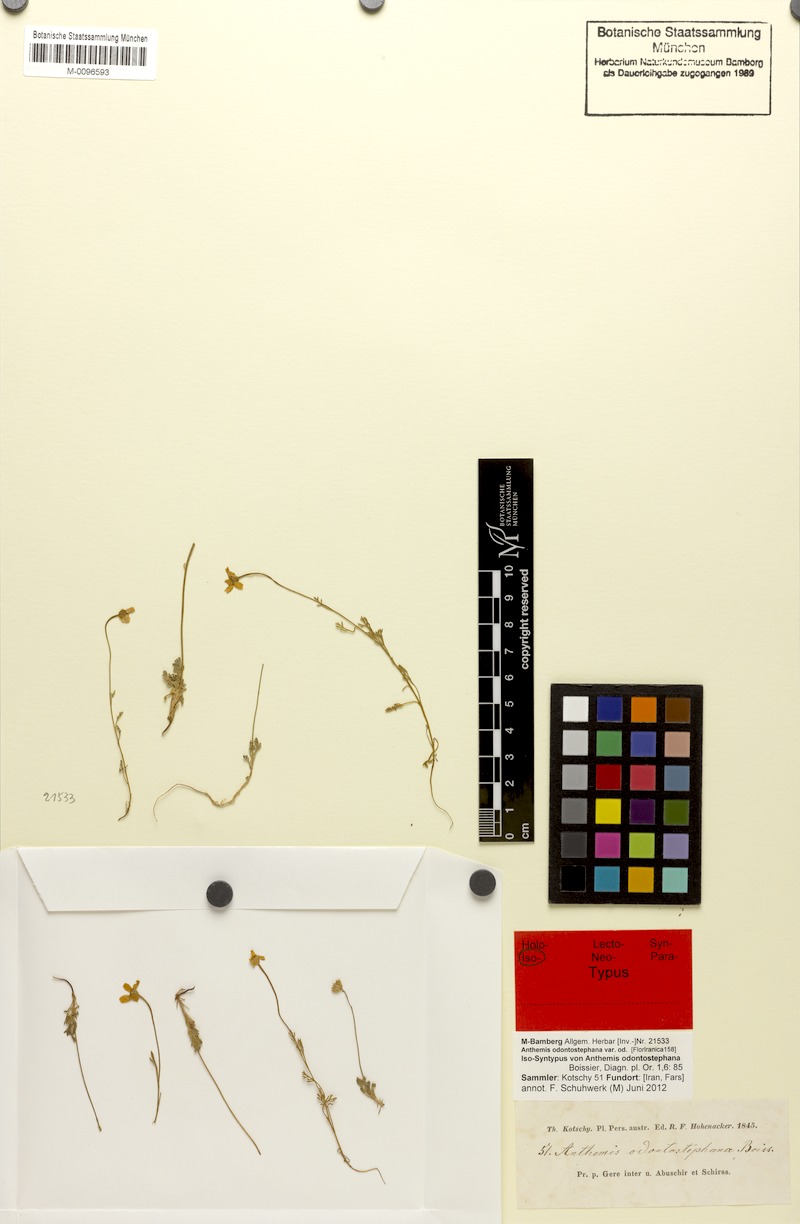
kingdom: Plantae
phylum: Tracheophyta
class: Magnoliopsida
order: Asterales
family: Asteraceae
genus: Anthemis
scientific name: Anthemis odontostephana
